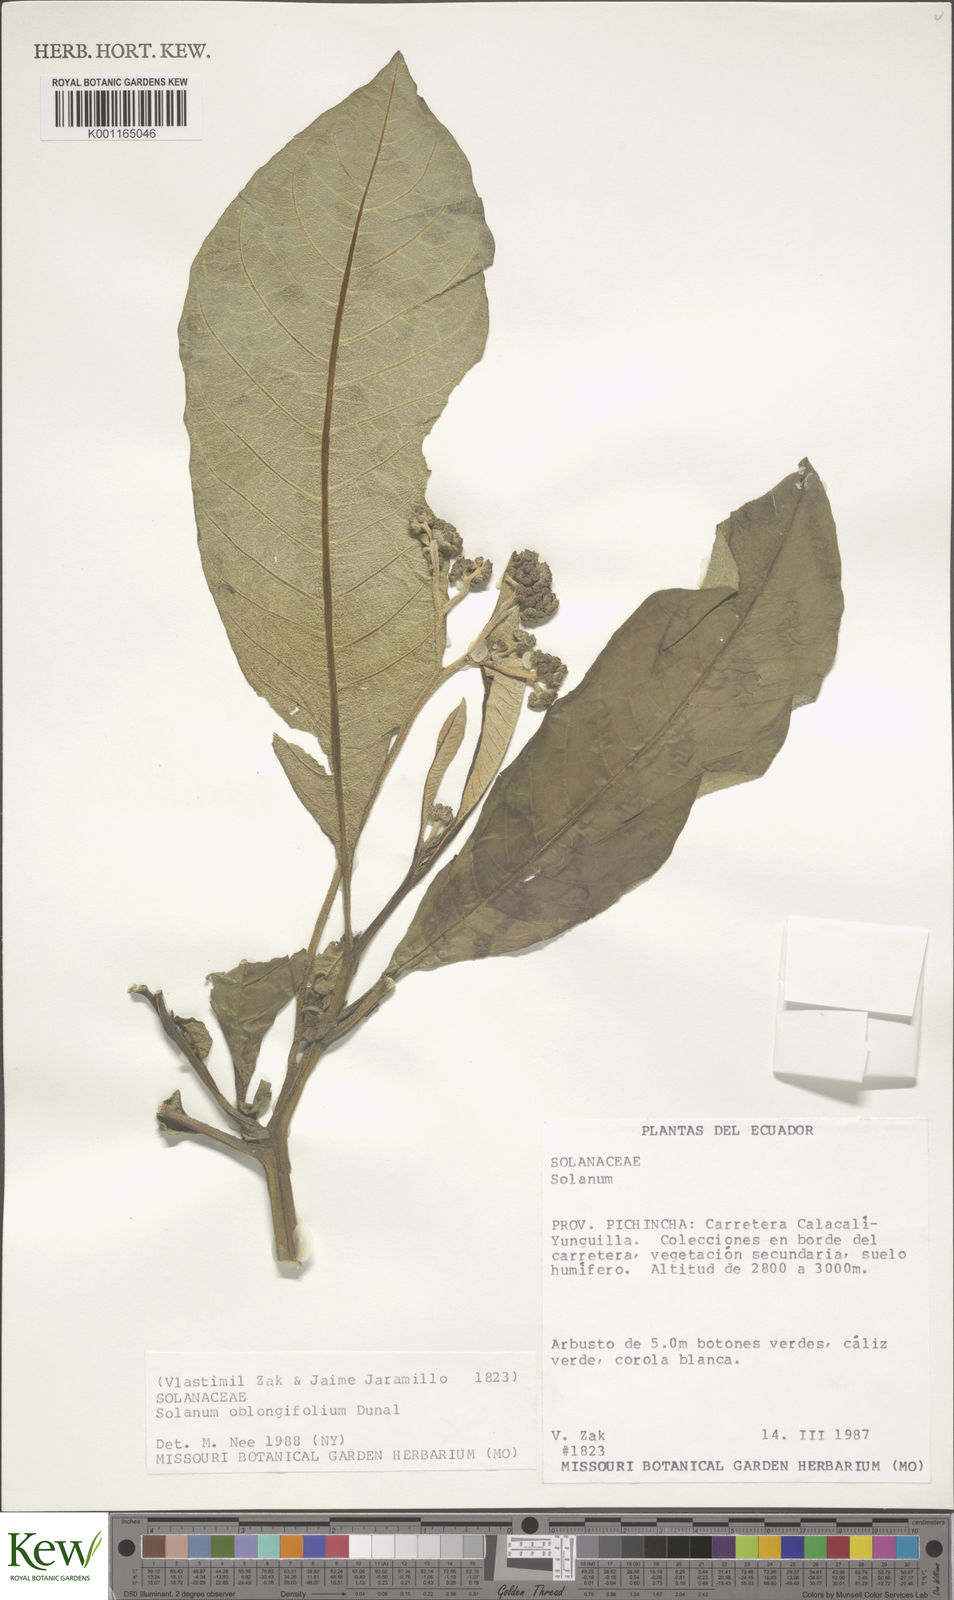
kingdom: Plantae
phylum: Tracheophyta
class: Magnoliopsida
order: Solanales
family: Solanaceae
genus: Solanum
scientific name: Solanum oblongifolium
